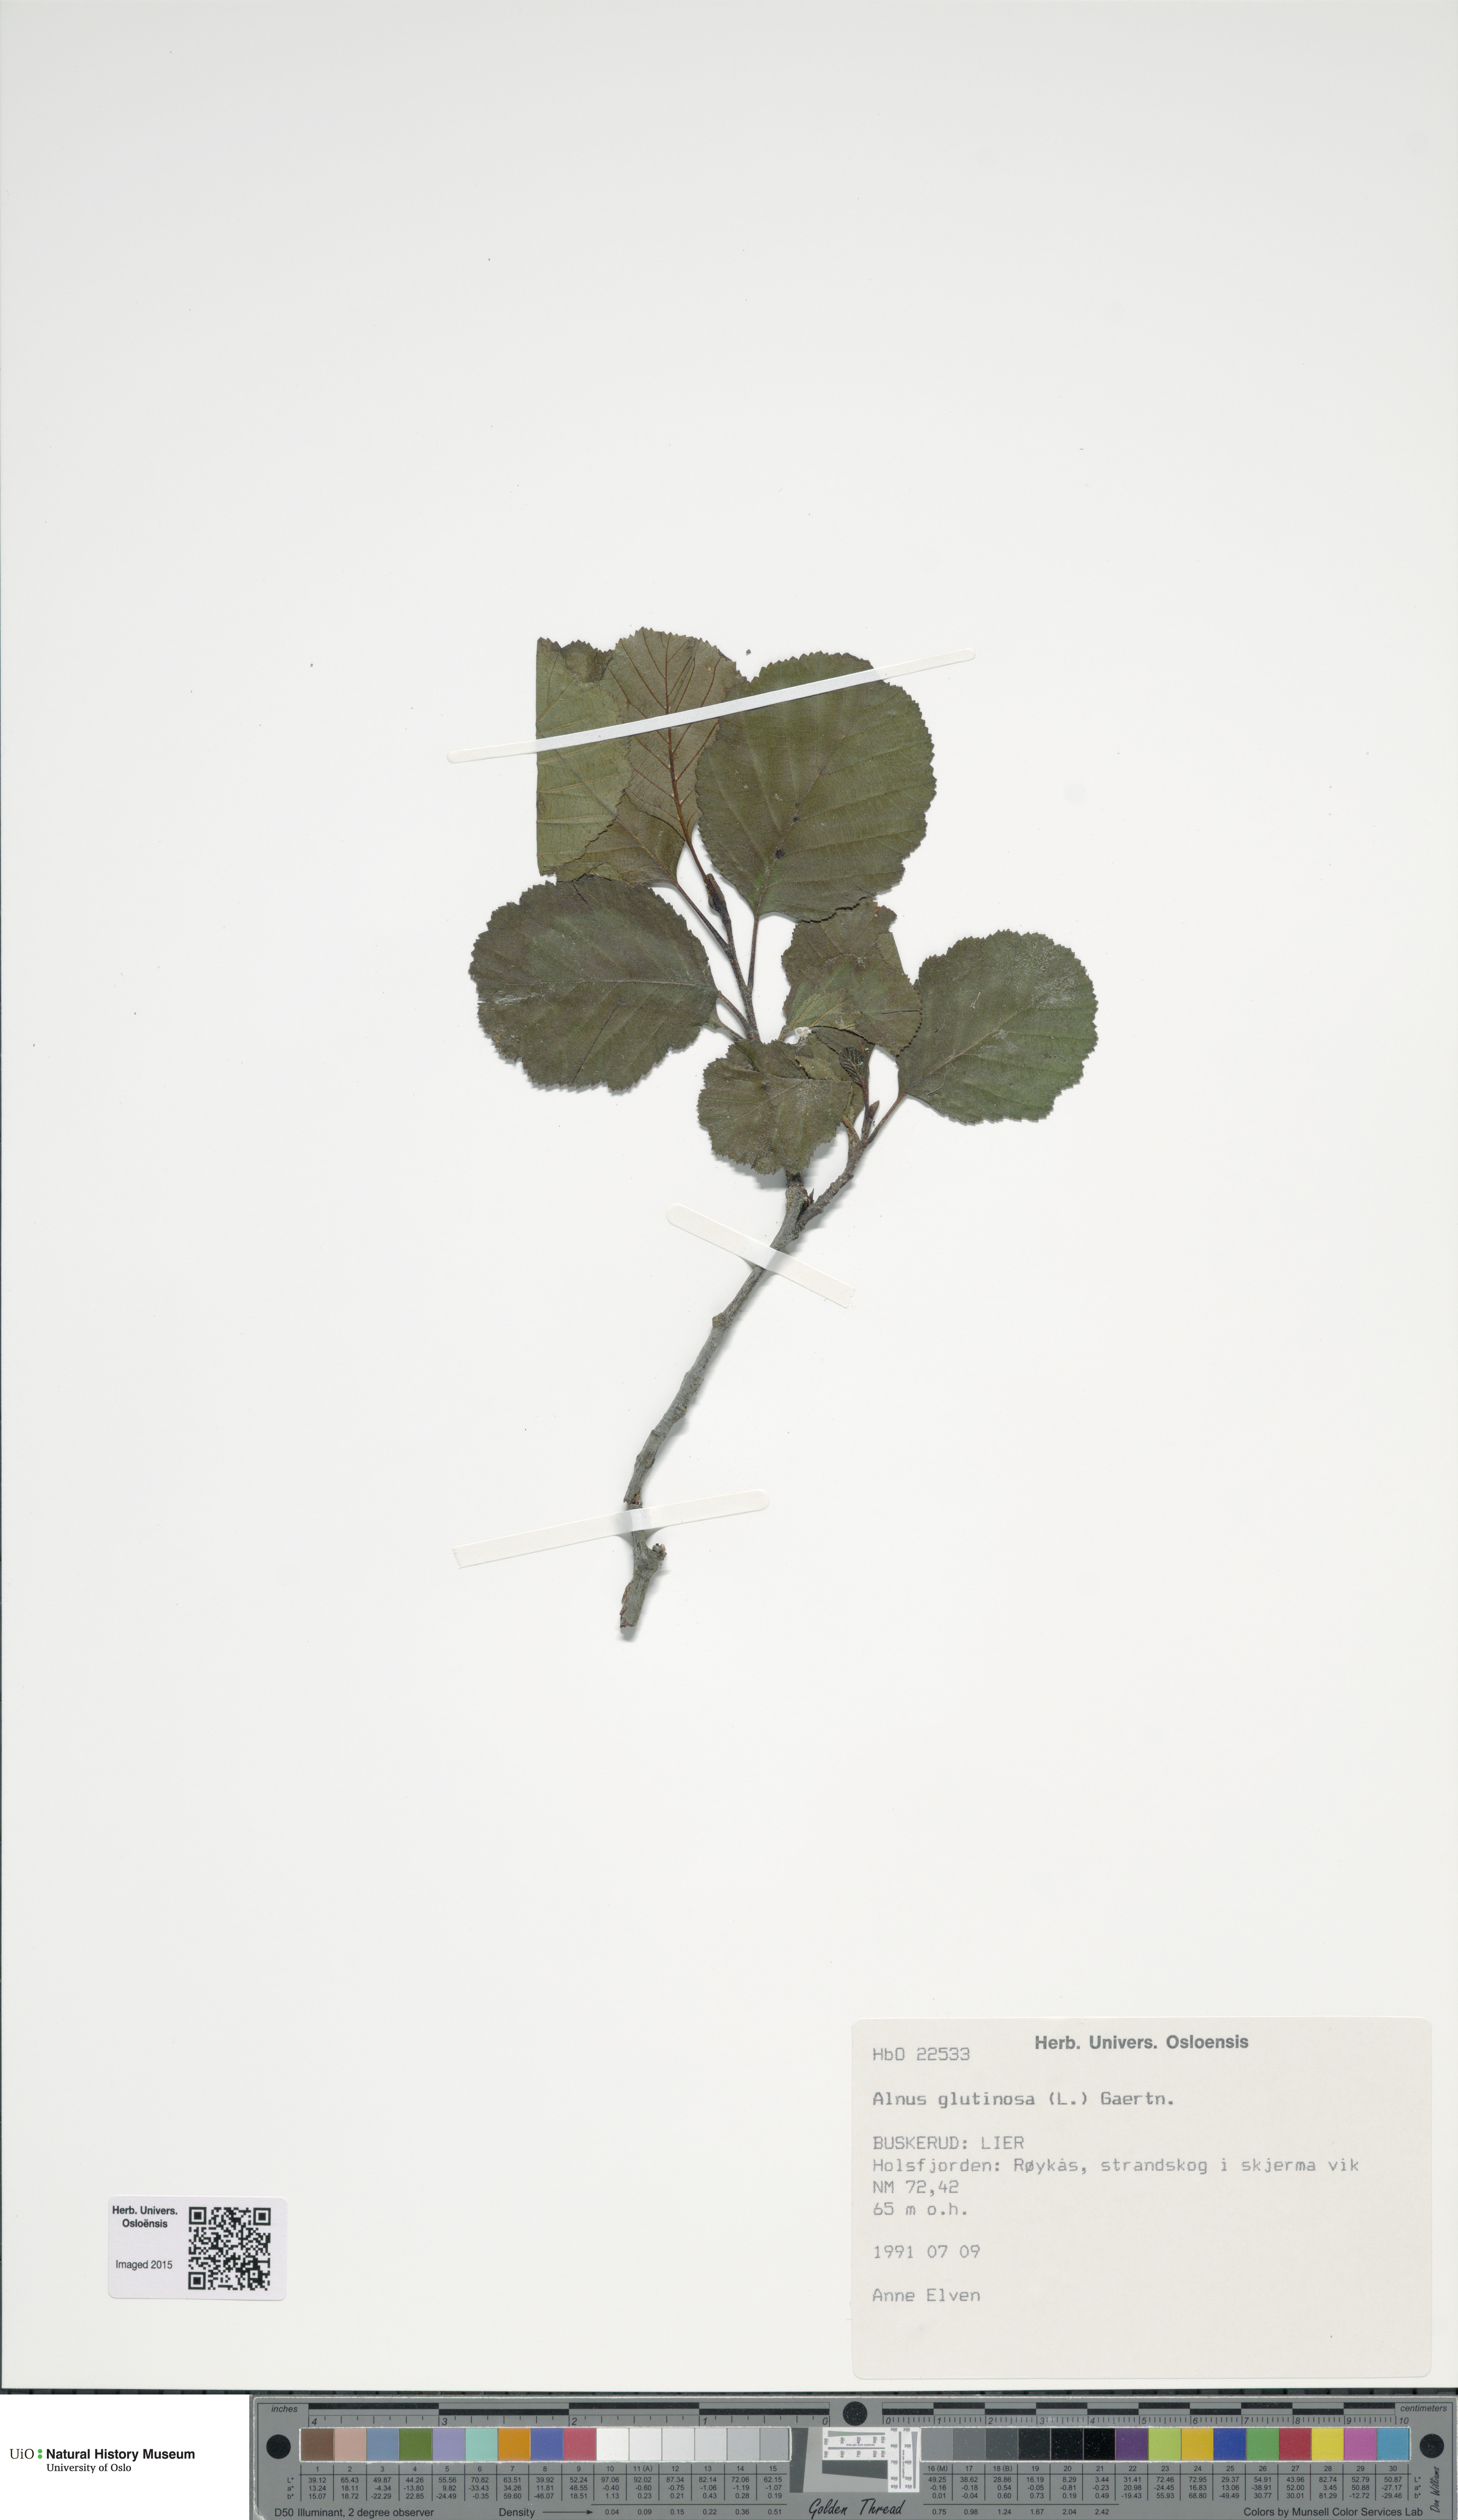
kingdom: Plantae
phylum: Tracheophyta
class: Magnoliopsida
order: Fagales
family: Betulaceae
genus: Alnus
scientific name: Alnus glutinosa
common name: Black alder
